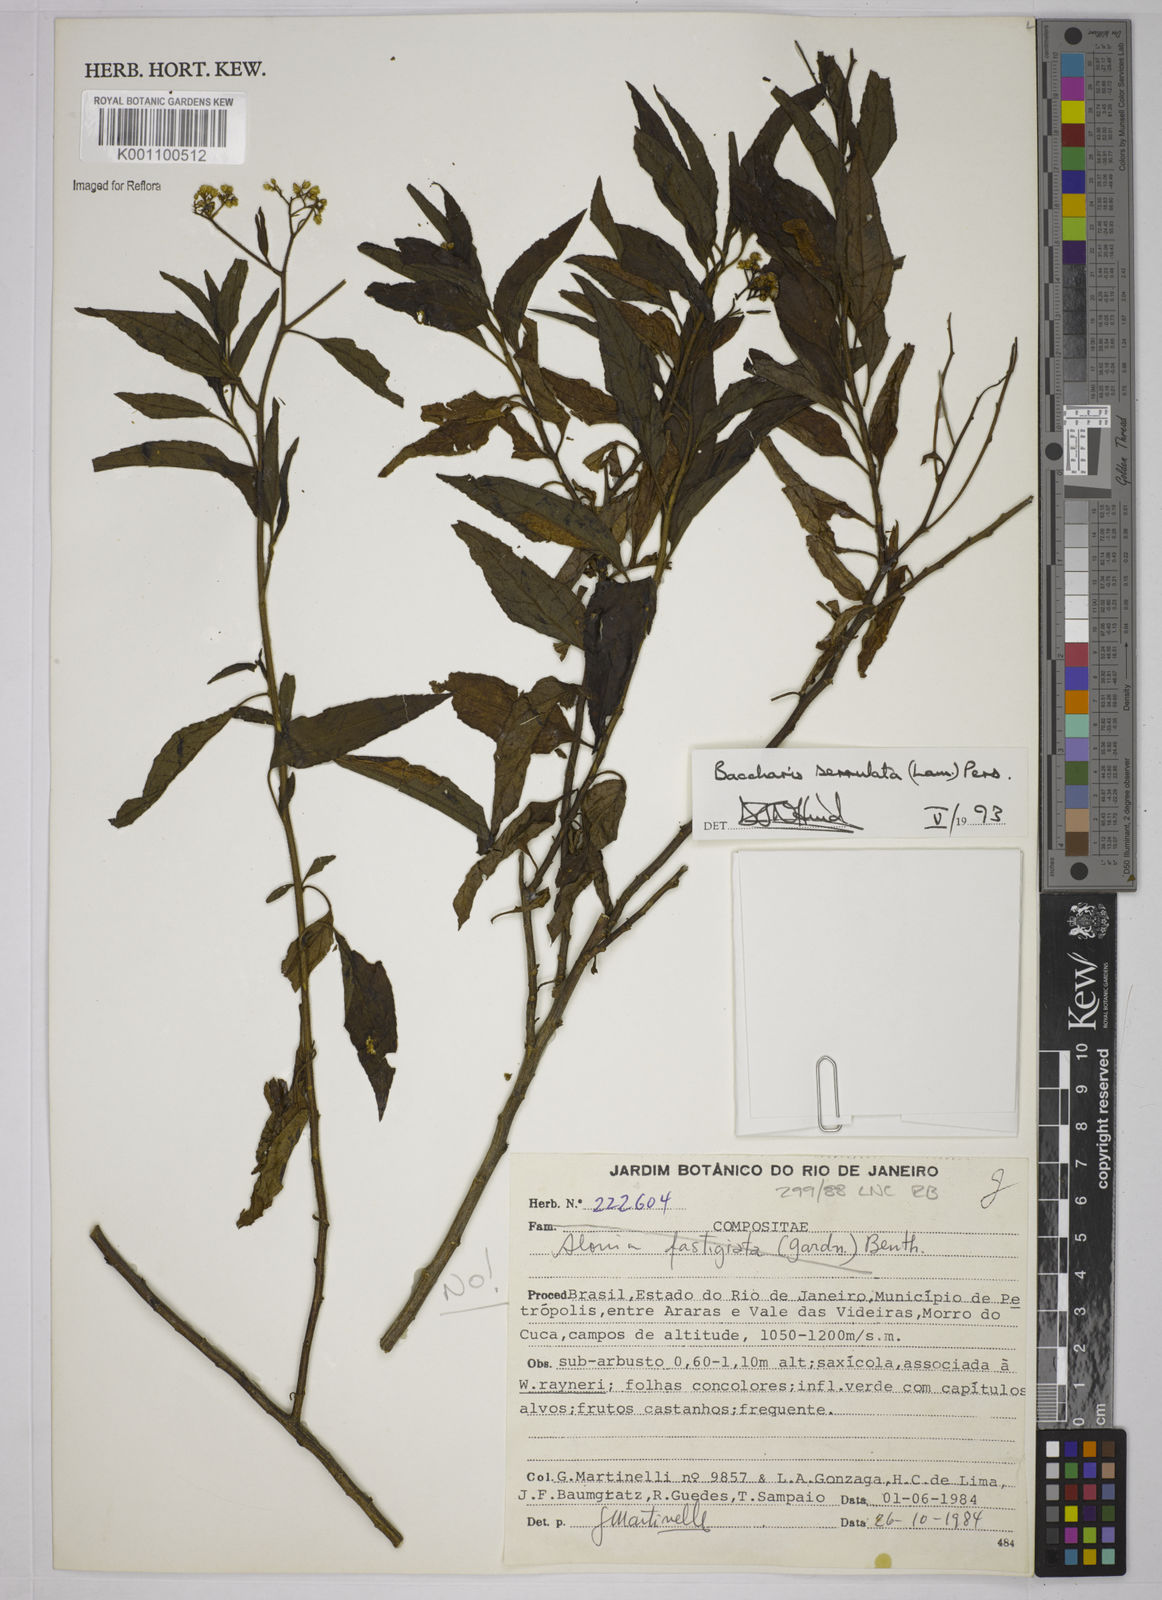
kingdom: Plantae
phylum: Tracheophyta
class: Magnoliopsida
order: Asterales
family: Asteraceae
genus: Baccharis
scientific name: Baccharis serrulata
